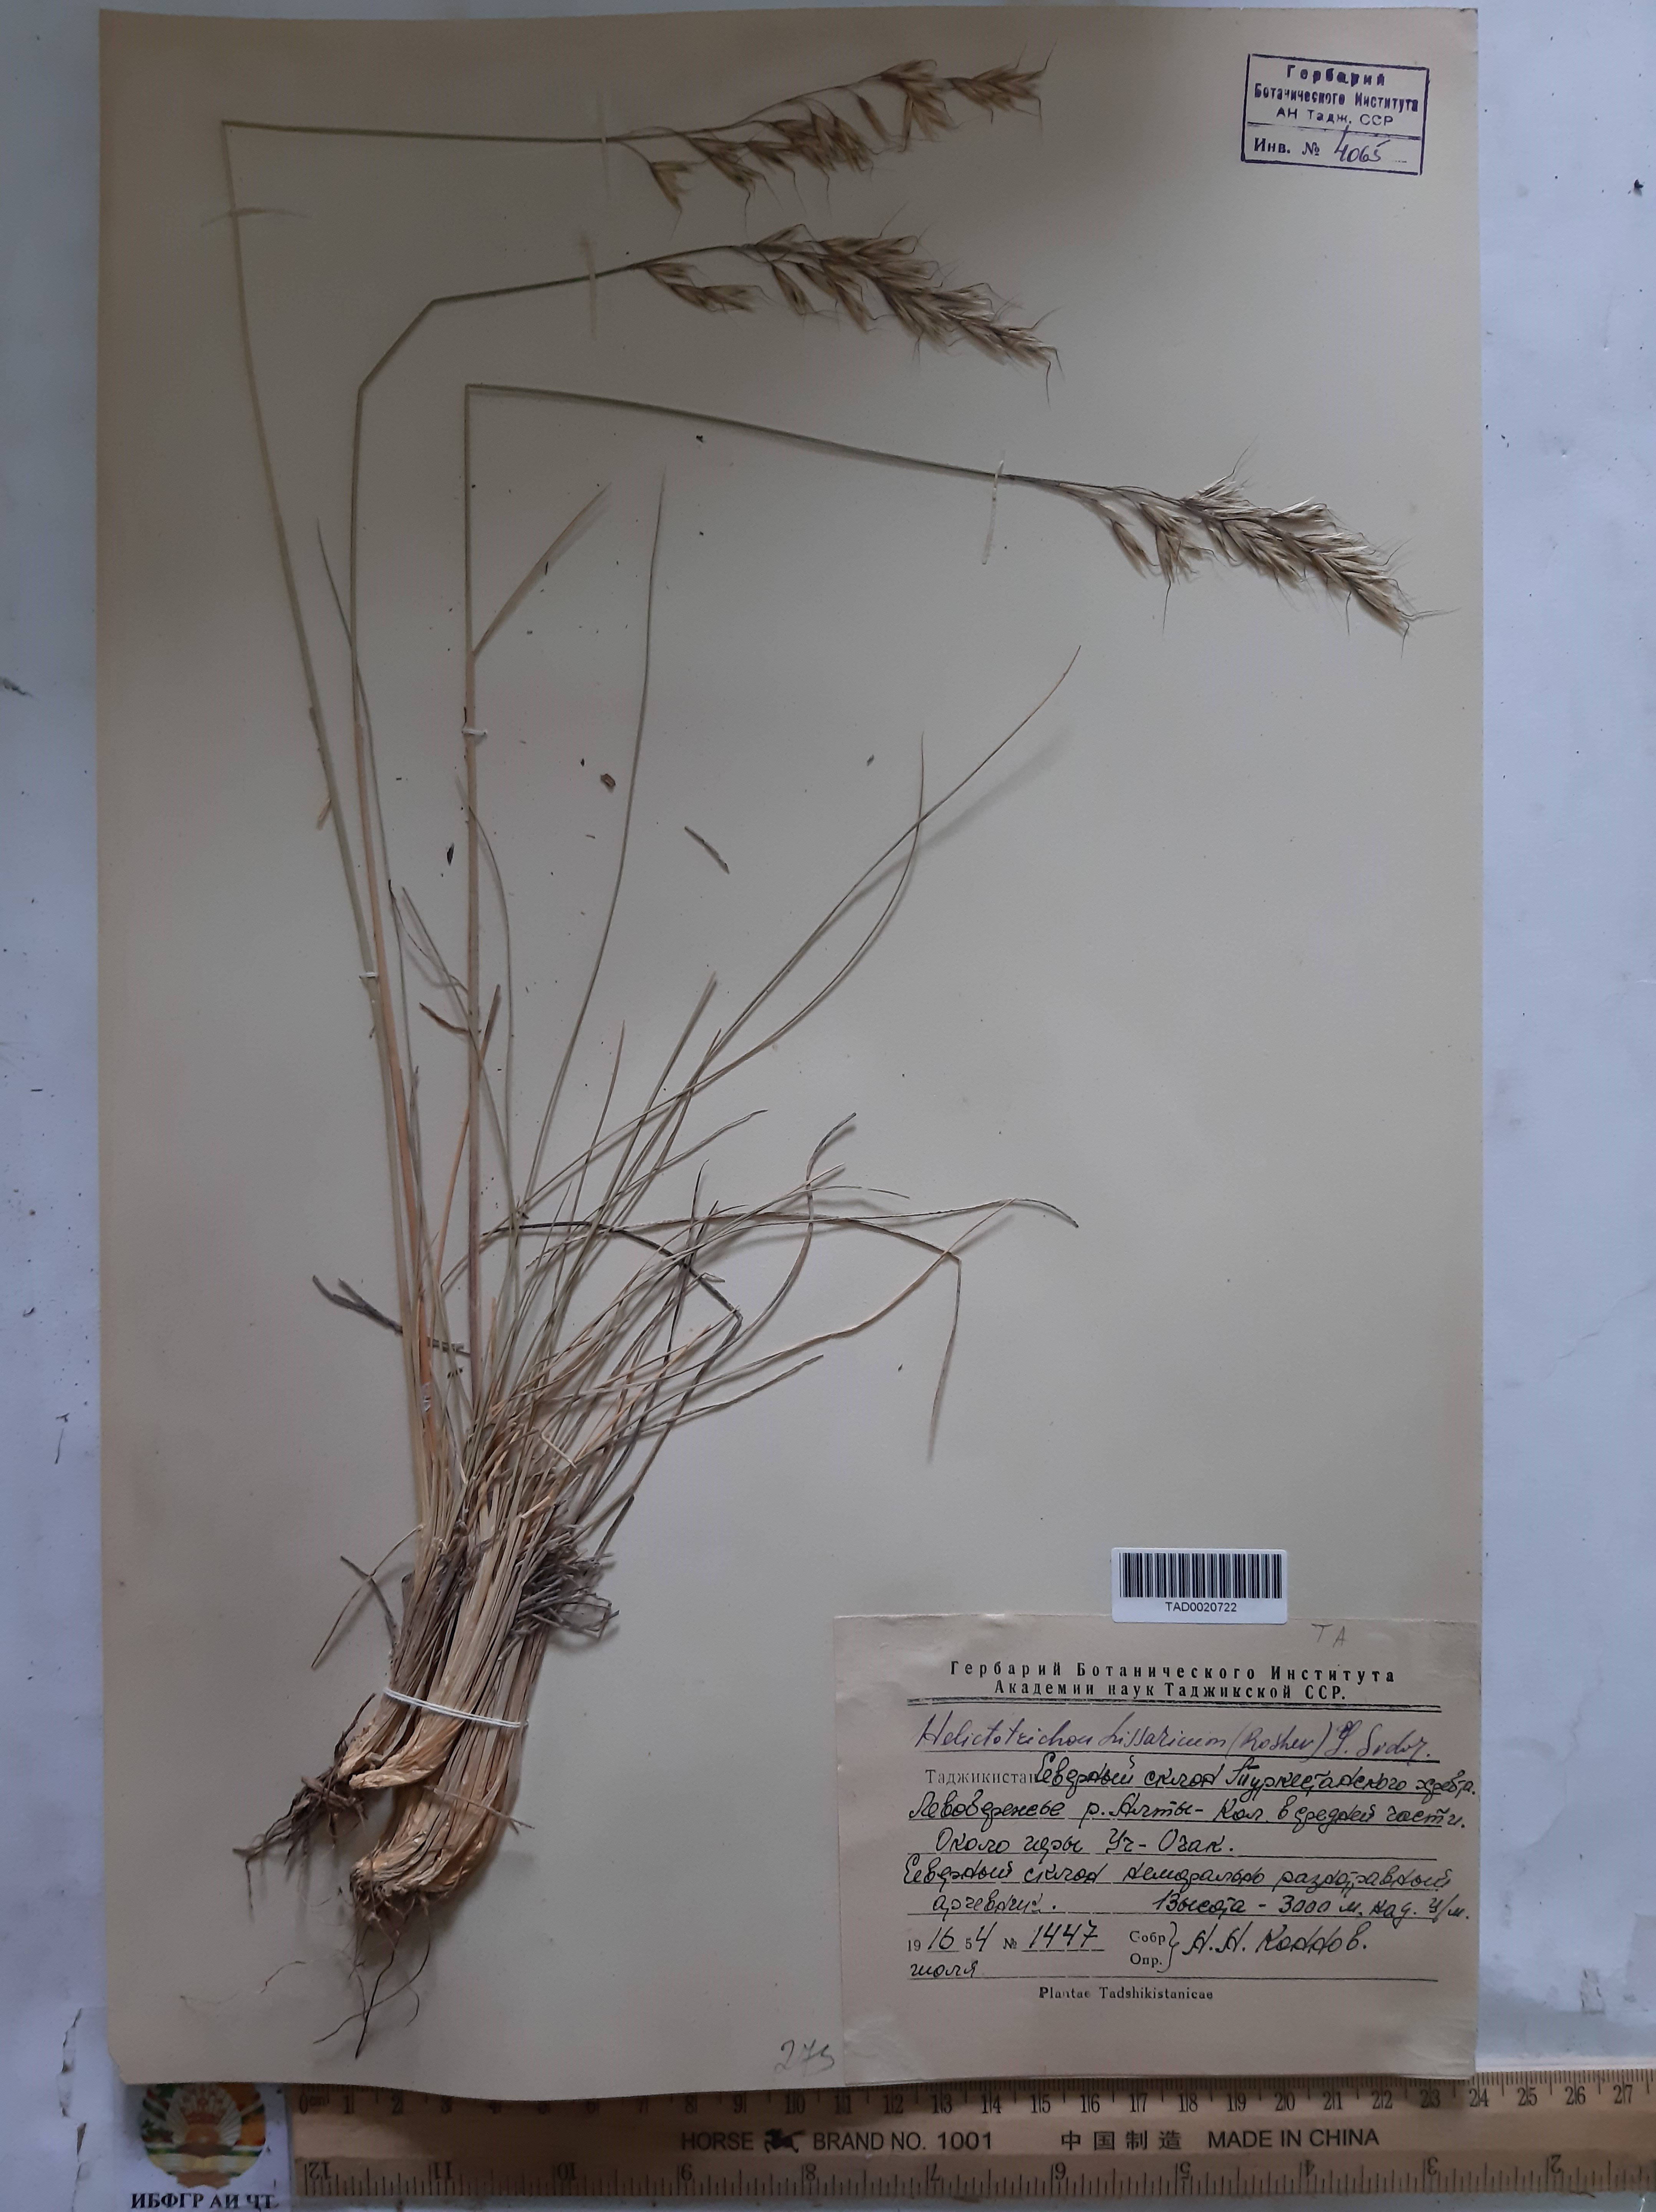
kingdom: Plantae
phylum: Tracheophyta
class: Liliopsida
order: Poales
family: Poaceae
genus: Helictotrichon
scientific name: Helictotrichon hissaricum
